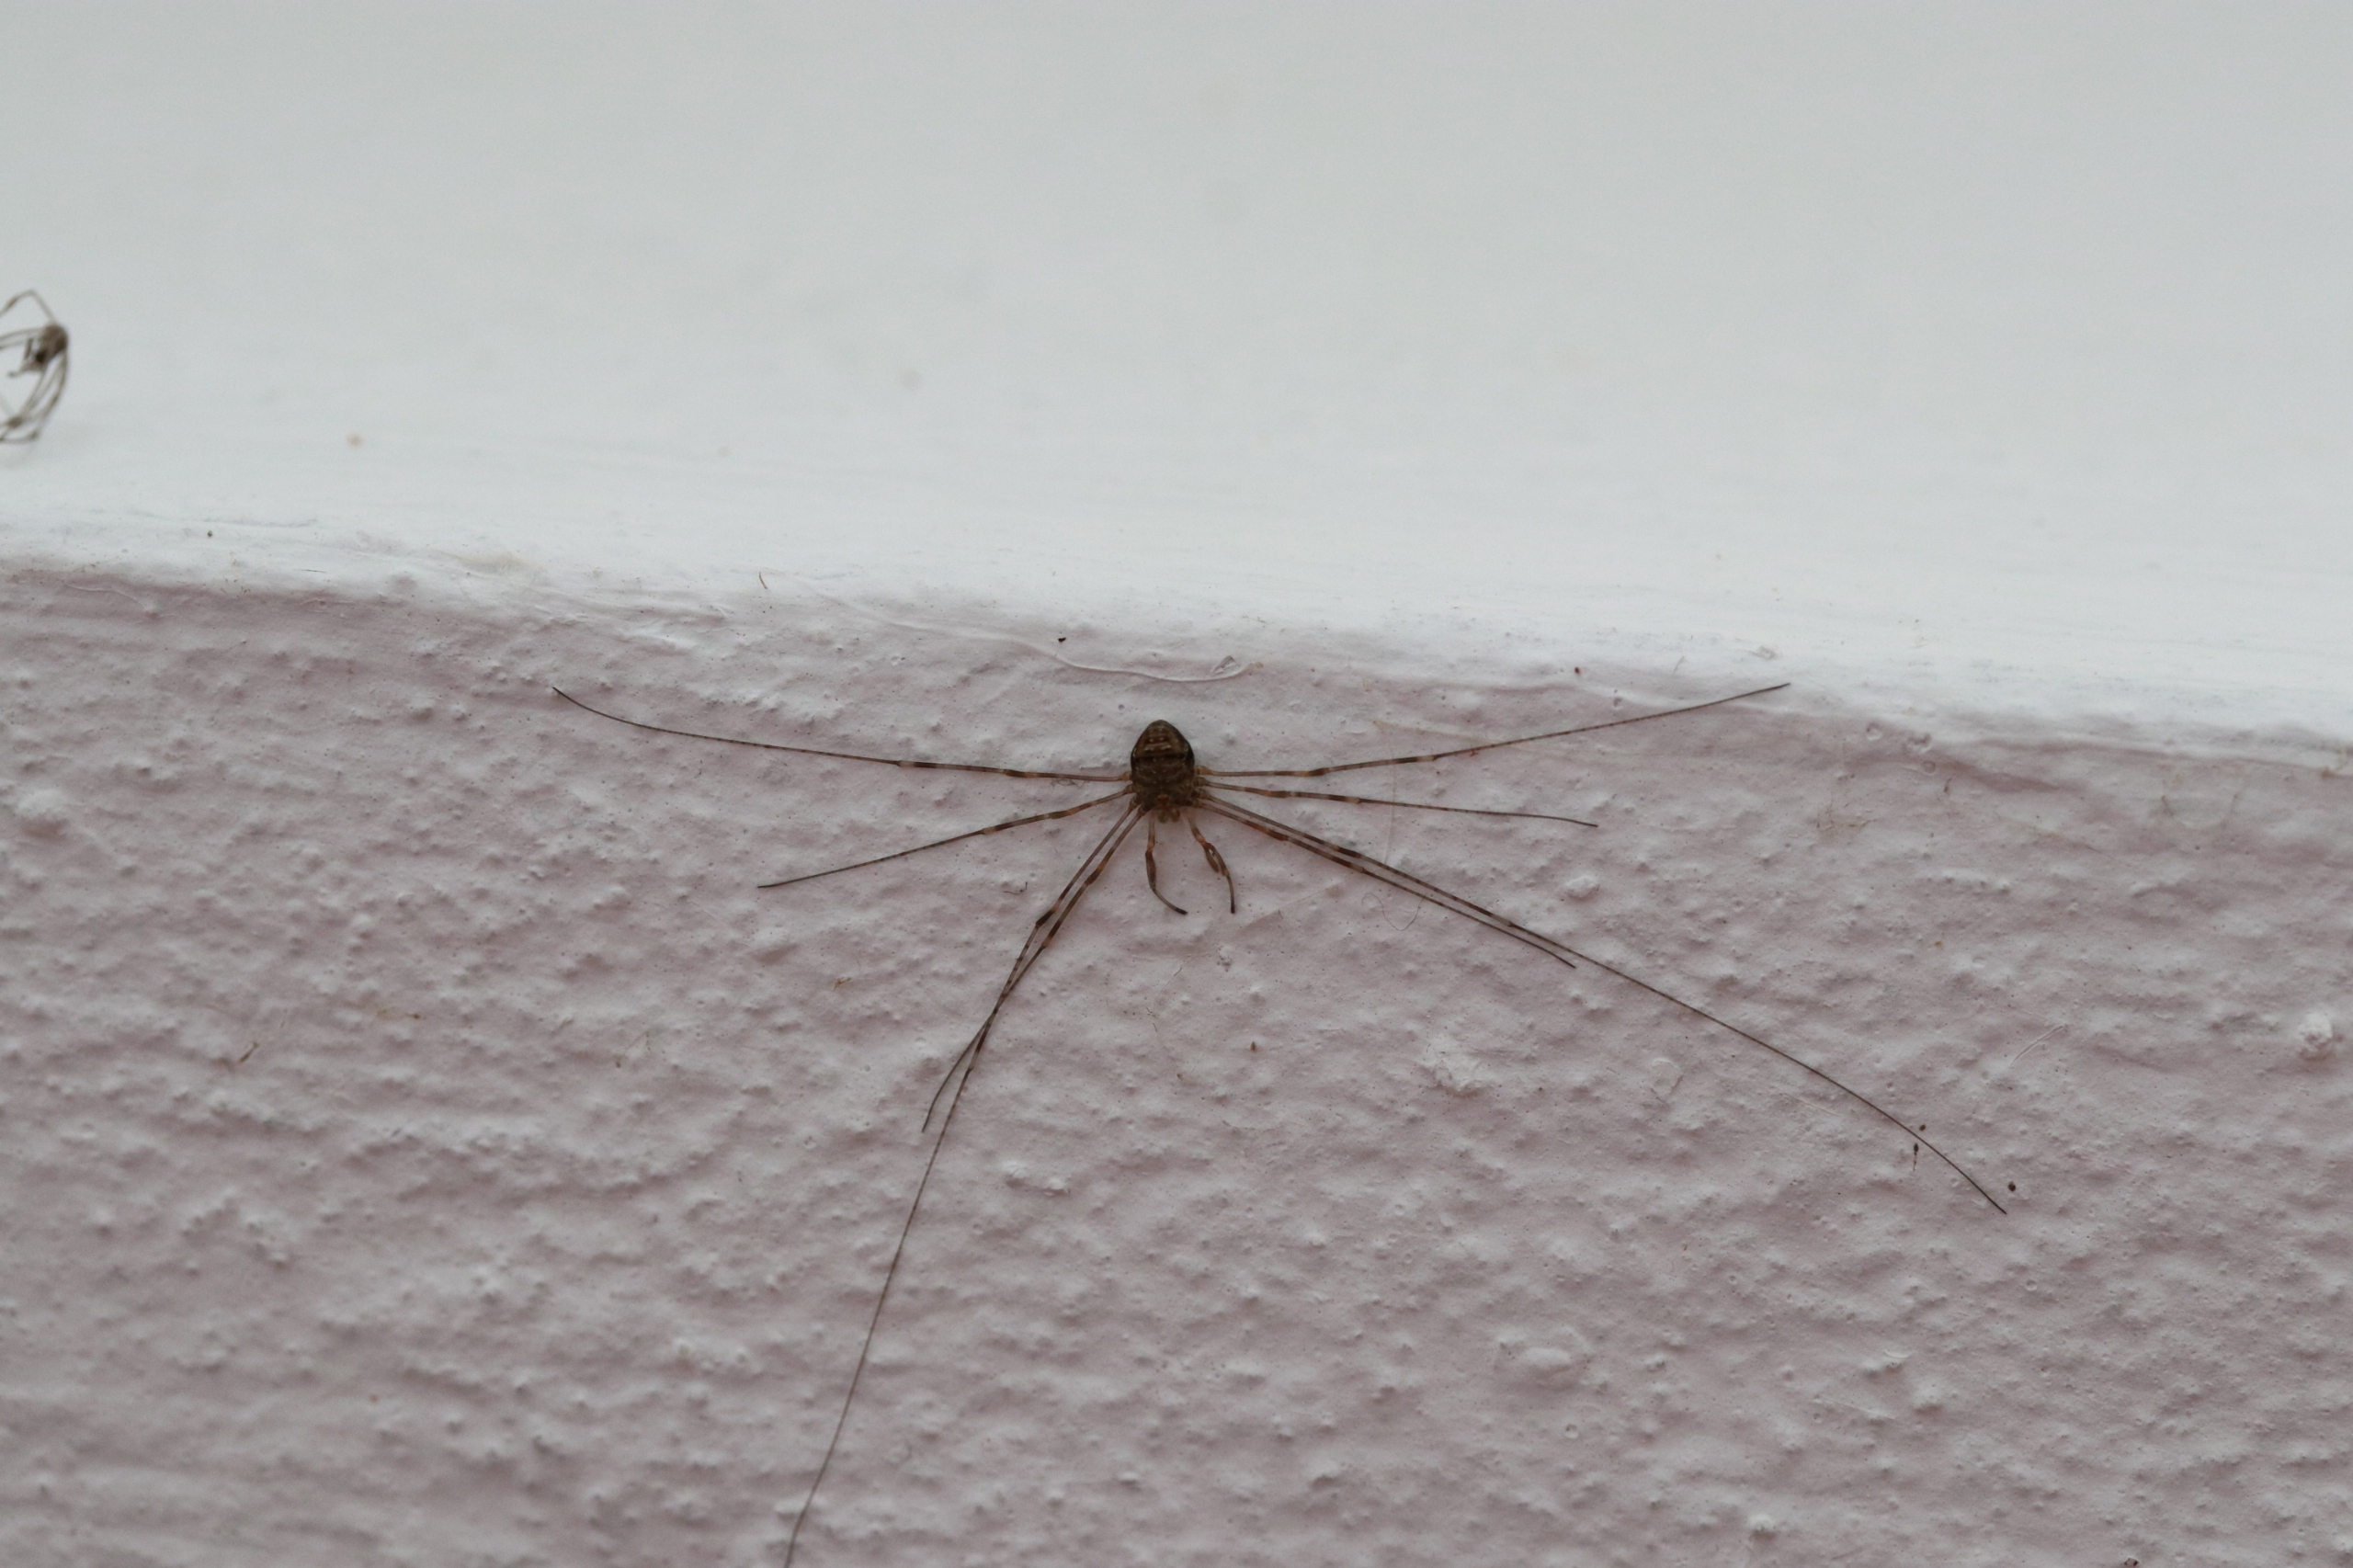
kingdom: Animalia
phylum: Arthropoda
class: Arachnida
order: Opiliones
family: Phalangiidae
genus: Dicranopalpus
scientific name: Dicranopalpus ramosus
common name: Gaffelmejer
